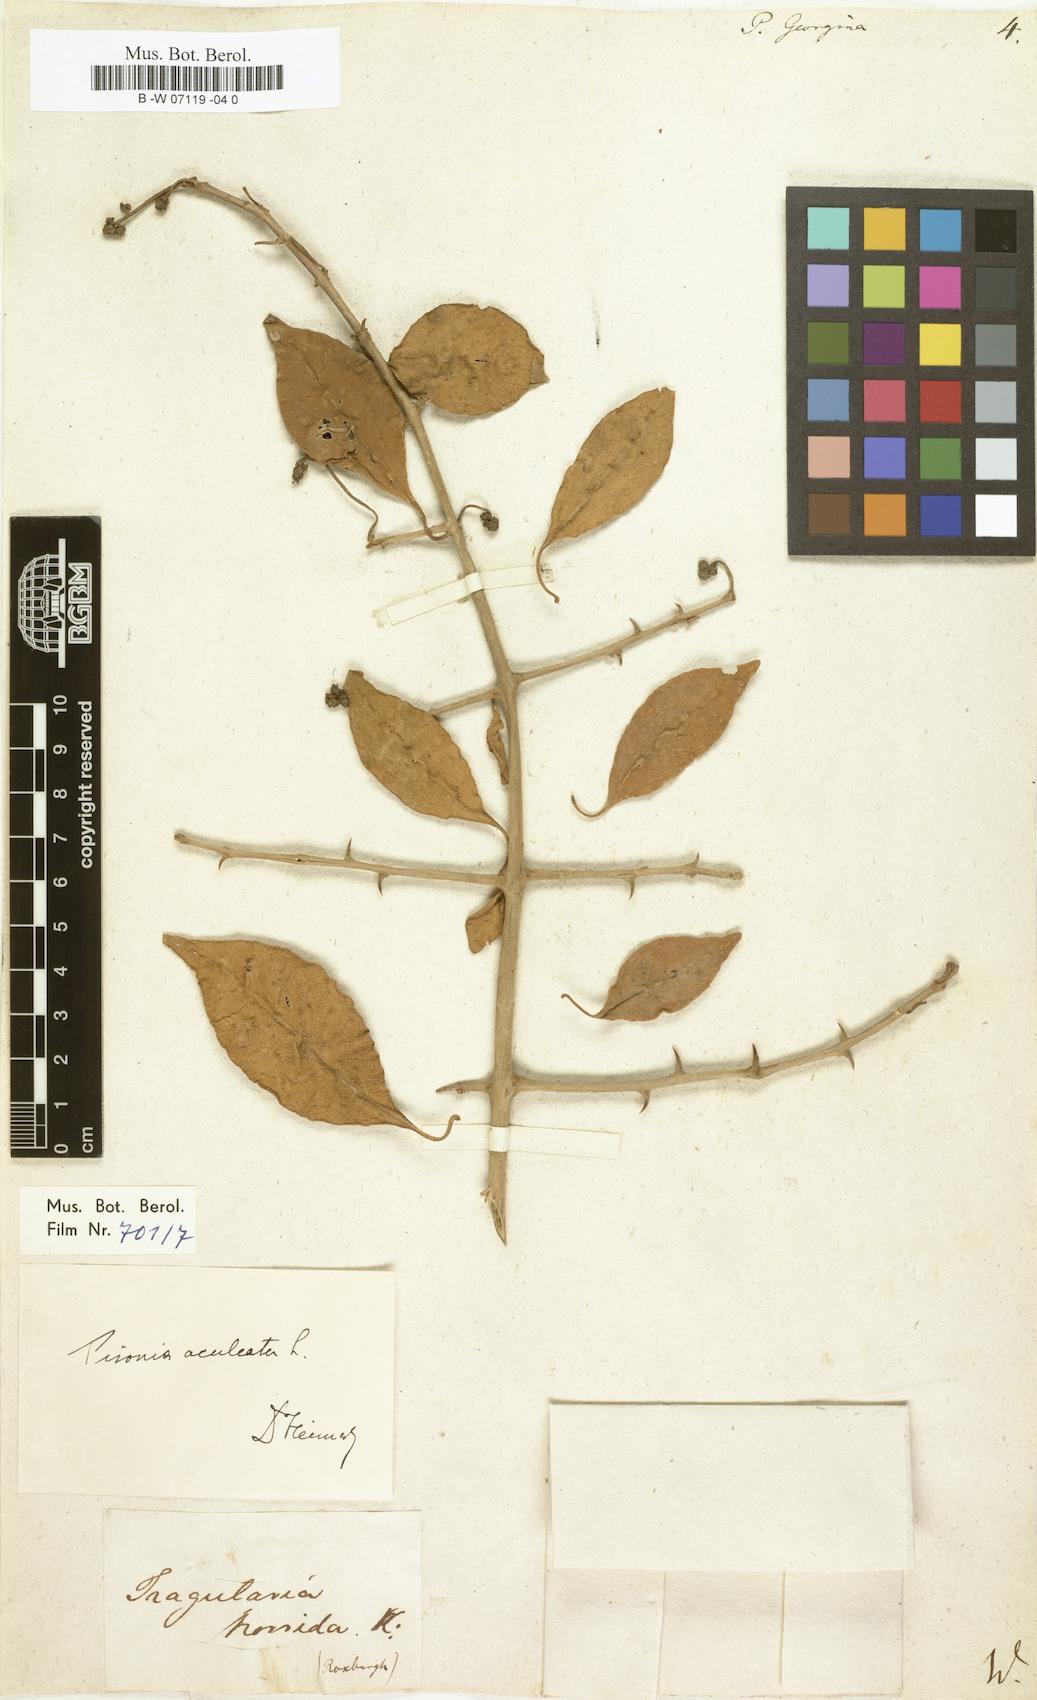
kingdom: Plantae
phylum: Tracheophyta
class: Magnoliopsida
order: Caryophyllales
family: Nyctaginaceae
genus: Pisonia
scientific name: Pisonia aculeata
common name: Cockspur vine
